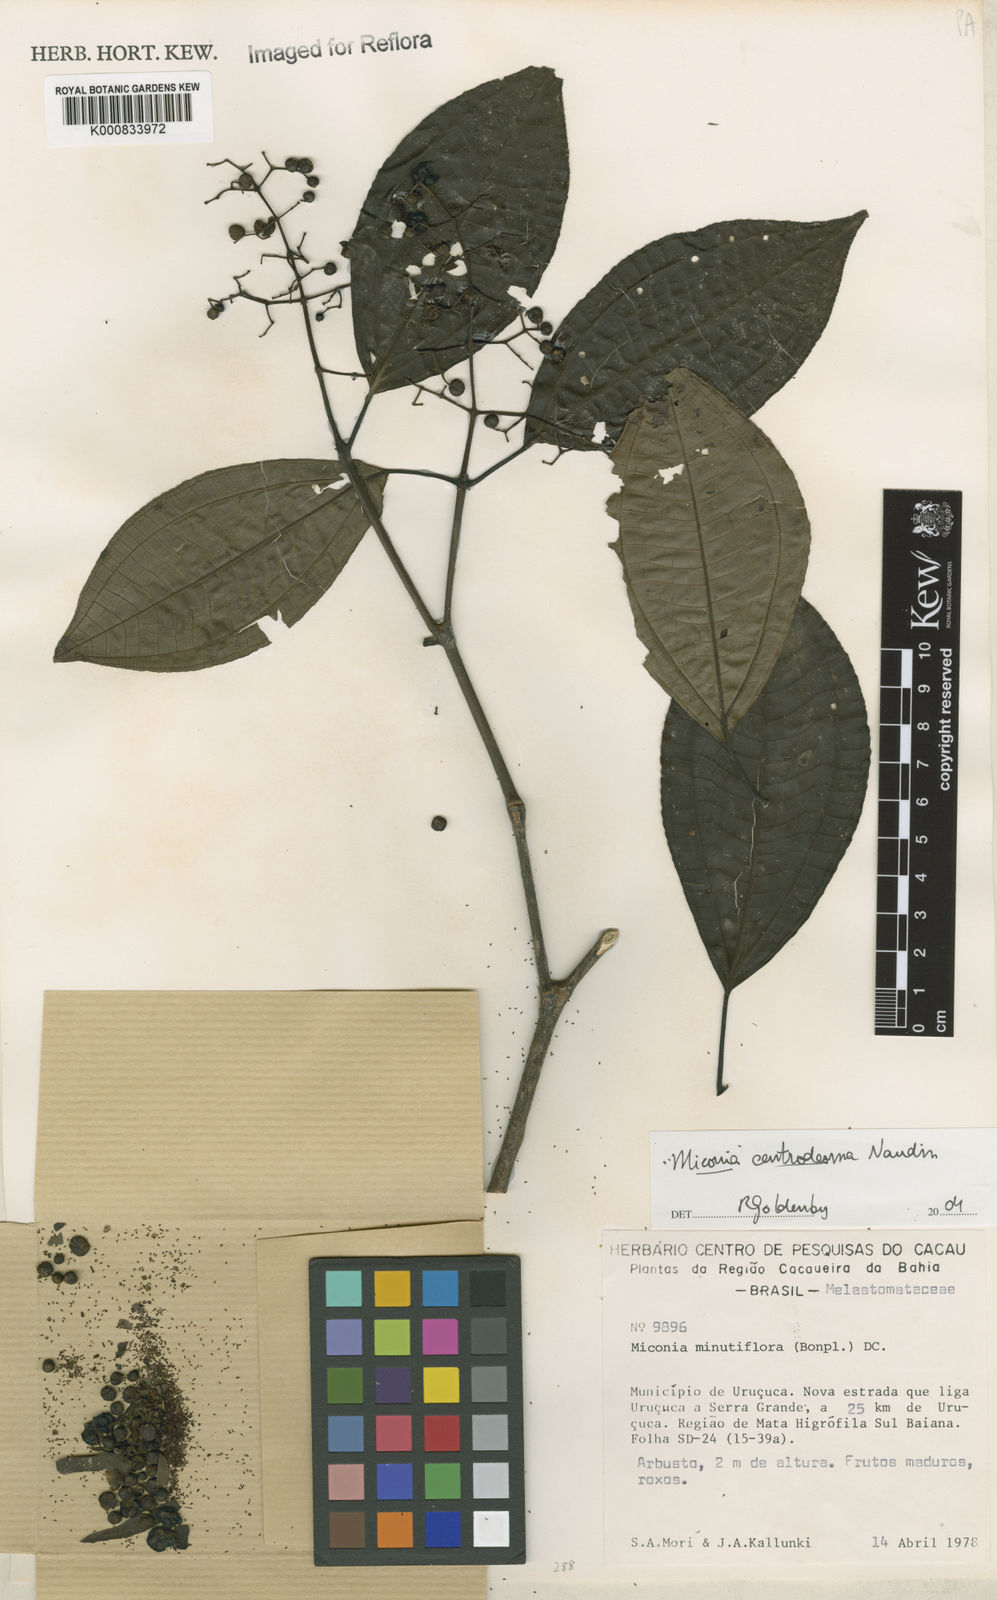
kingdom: Plantae
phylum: Tracheophyta
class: Magnoliopsida
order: Myrtales
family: Melastomataceae
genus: Miconia
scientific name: Miconia centrodesma
